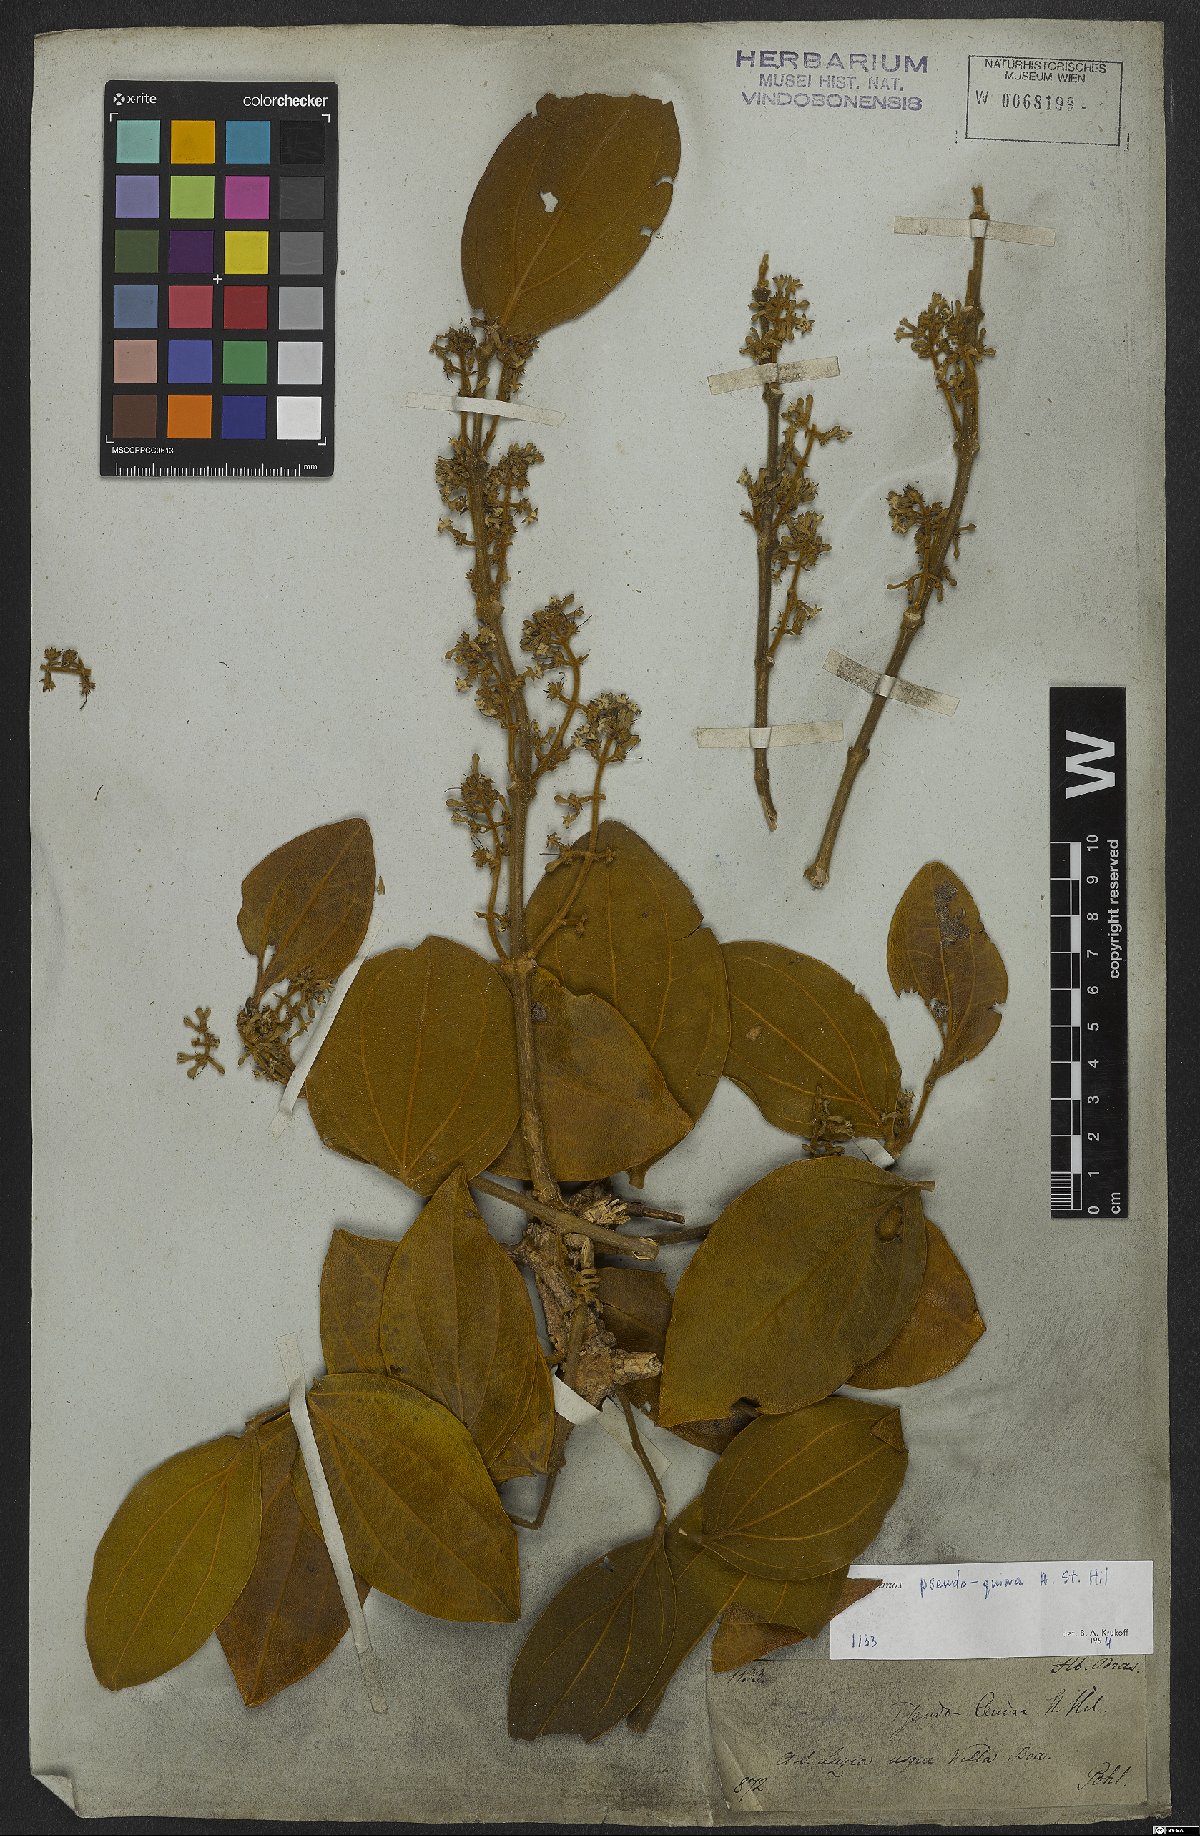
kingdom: Plantae
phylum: Tracheophyta
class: Magnoliopsida
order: Gentianales
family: Loganiaceae
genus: Strychnos
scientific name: Strychnos pseudoquina
